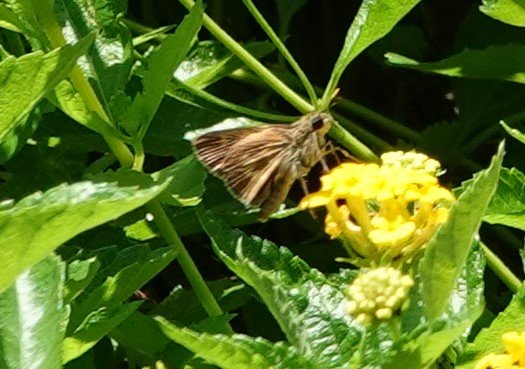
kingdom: Animalia
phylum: Arthropoda
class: Insecta
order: Lepidoptera
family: Hesperiidae
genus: Atalopedes
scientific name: Atalopedes campestris
